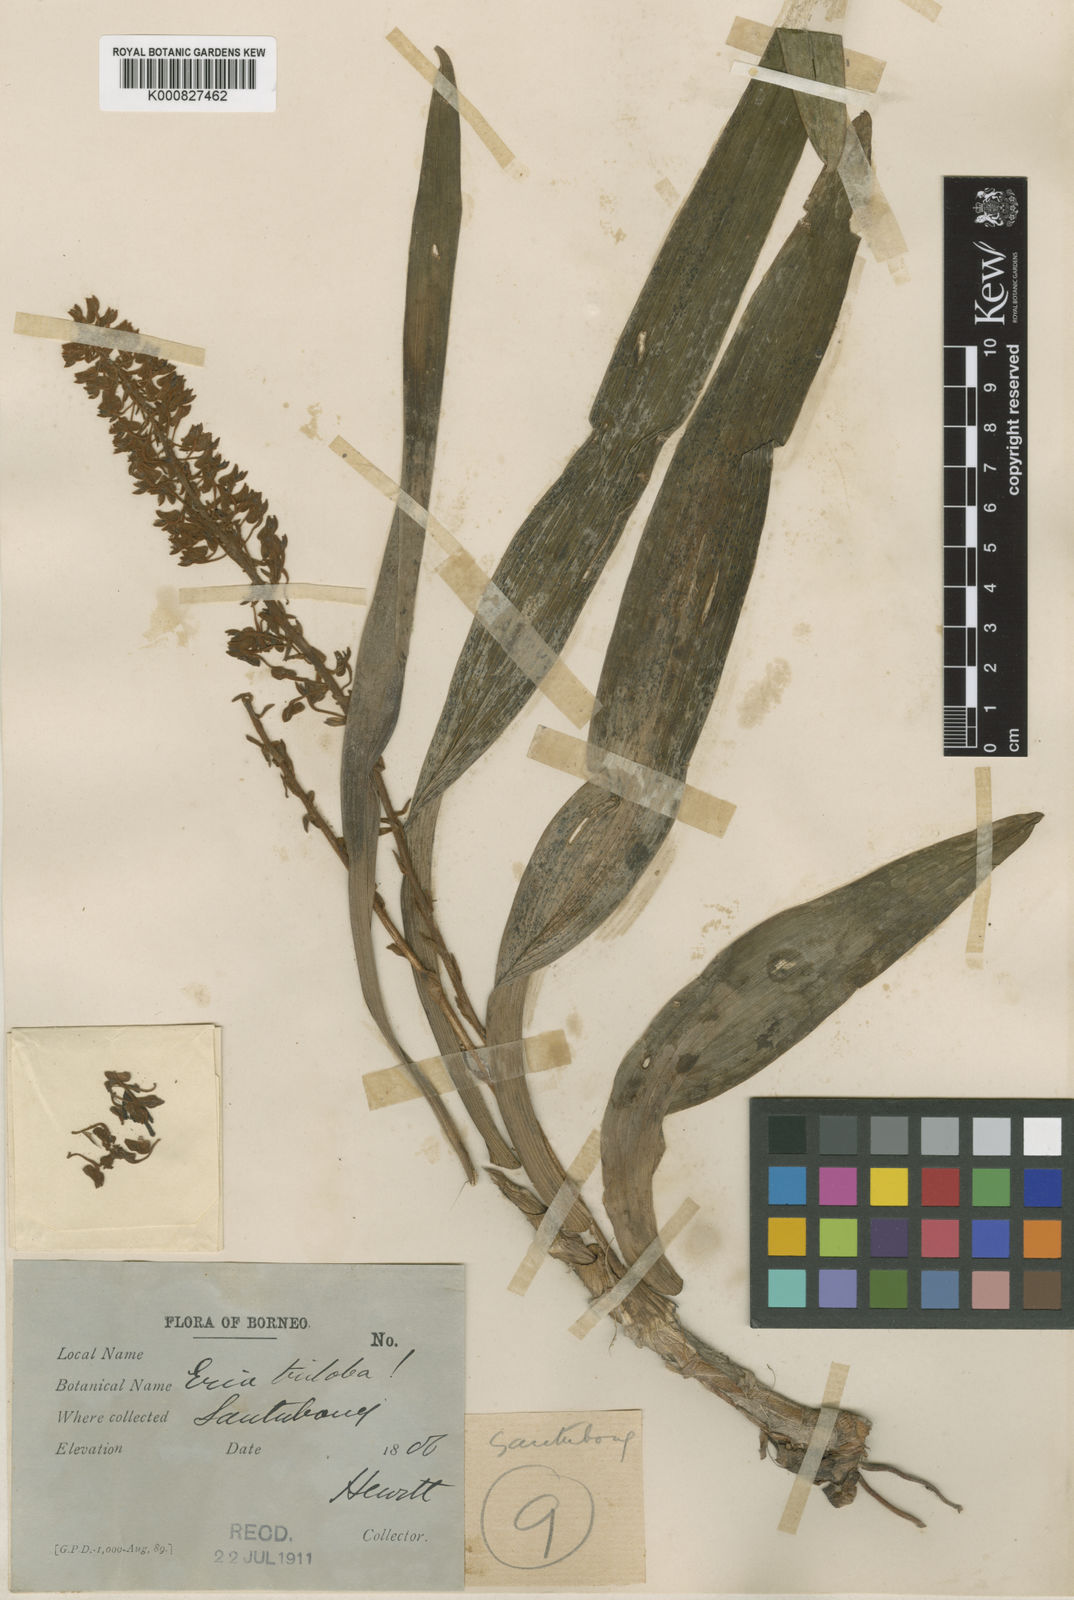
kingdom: Plantae
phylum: Tracheophyta
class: Liliopsida
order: Asparagales
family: Orchidaceae
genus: Pinalia
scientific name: Pinalia triloba
